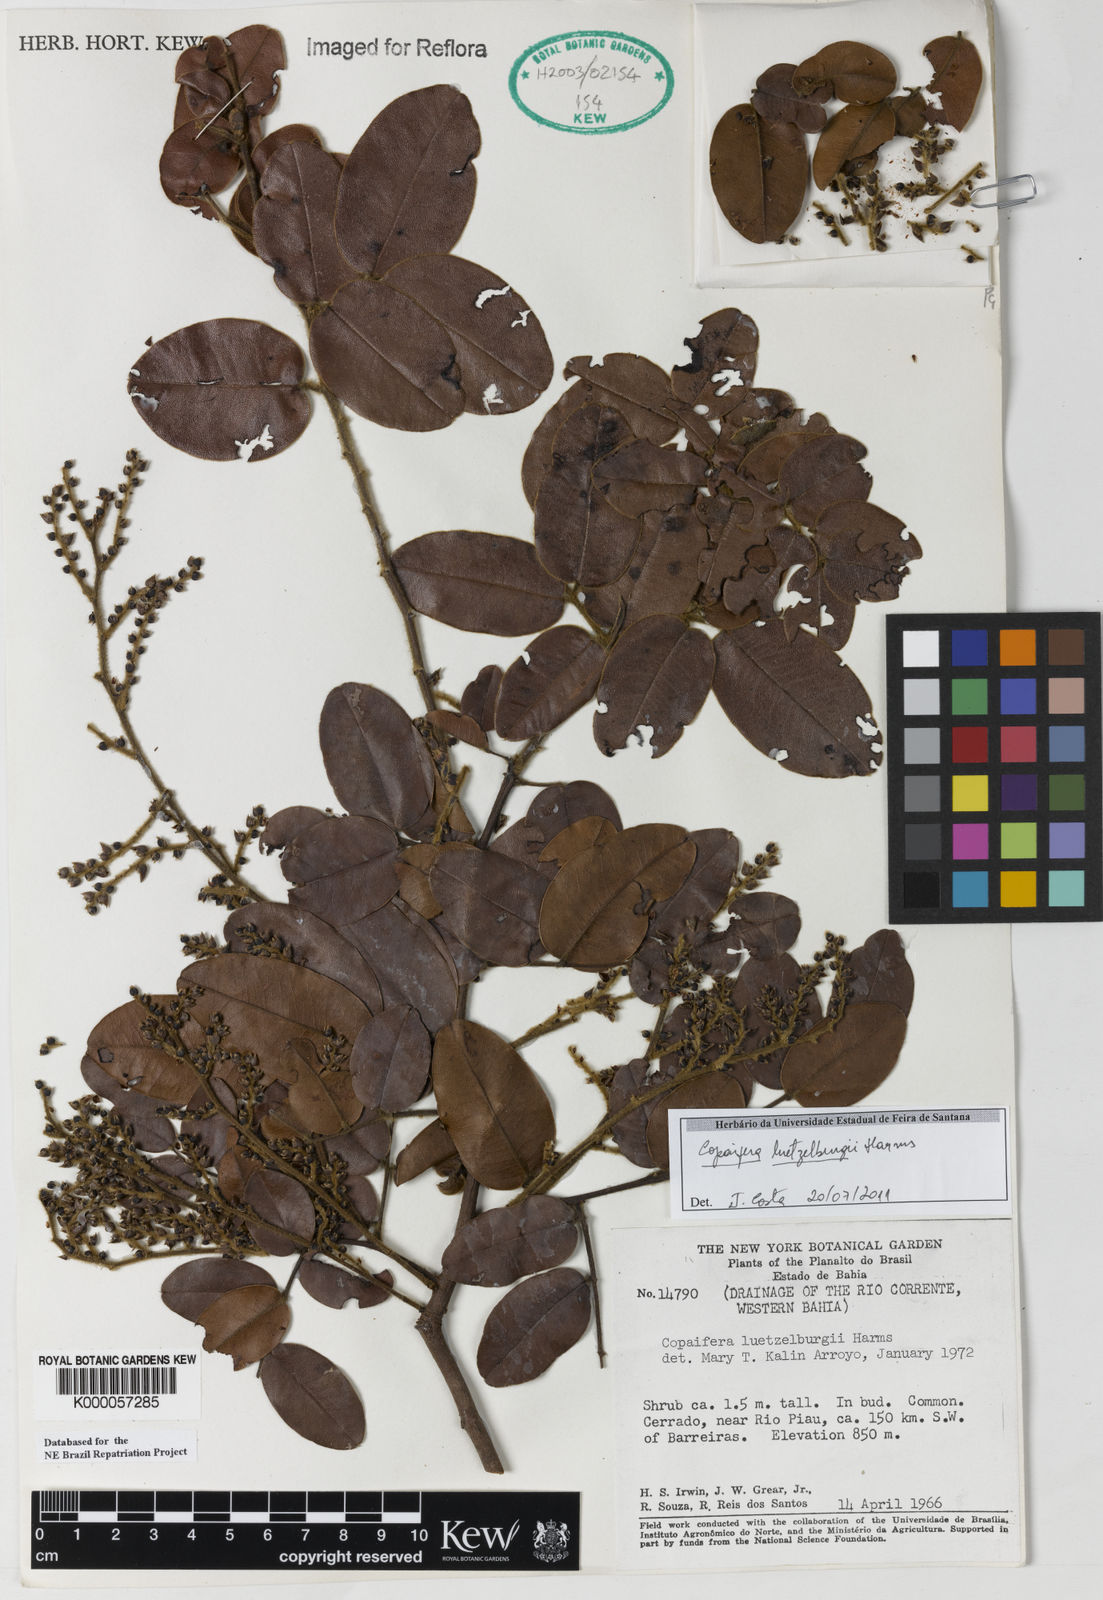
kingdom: Plantae
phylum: Tracheophyta
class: Magnoliopsida
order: Fabales
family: Fabaceae
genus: Copaifera
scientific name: Copaifera luetzelburgii
